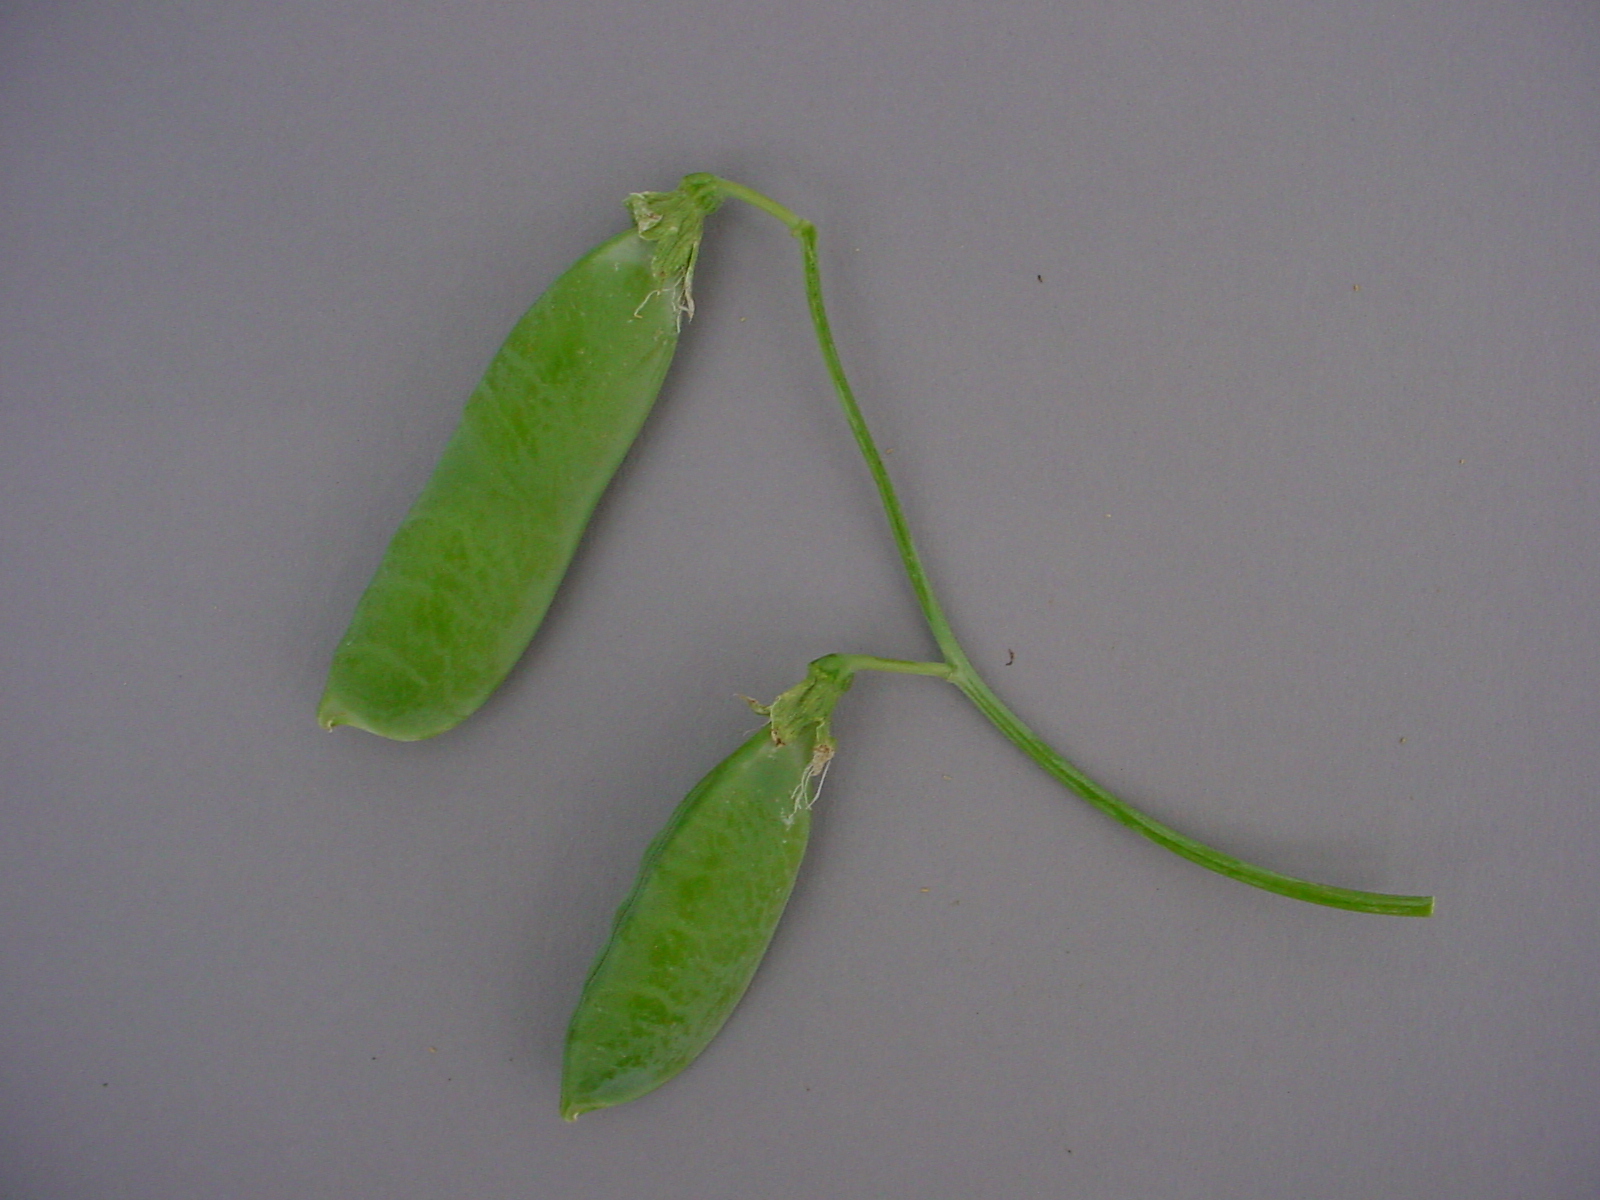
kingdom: Plantae
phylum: Tracheophyta
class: Magnoliopsida
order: Fabales
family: Fabaceae
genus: Lathyrus
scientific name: Lathyrus oleraceus
